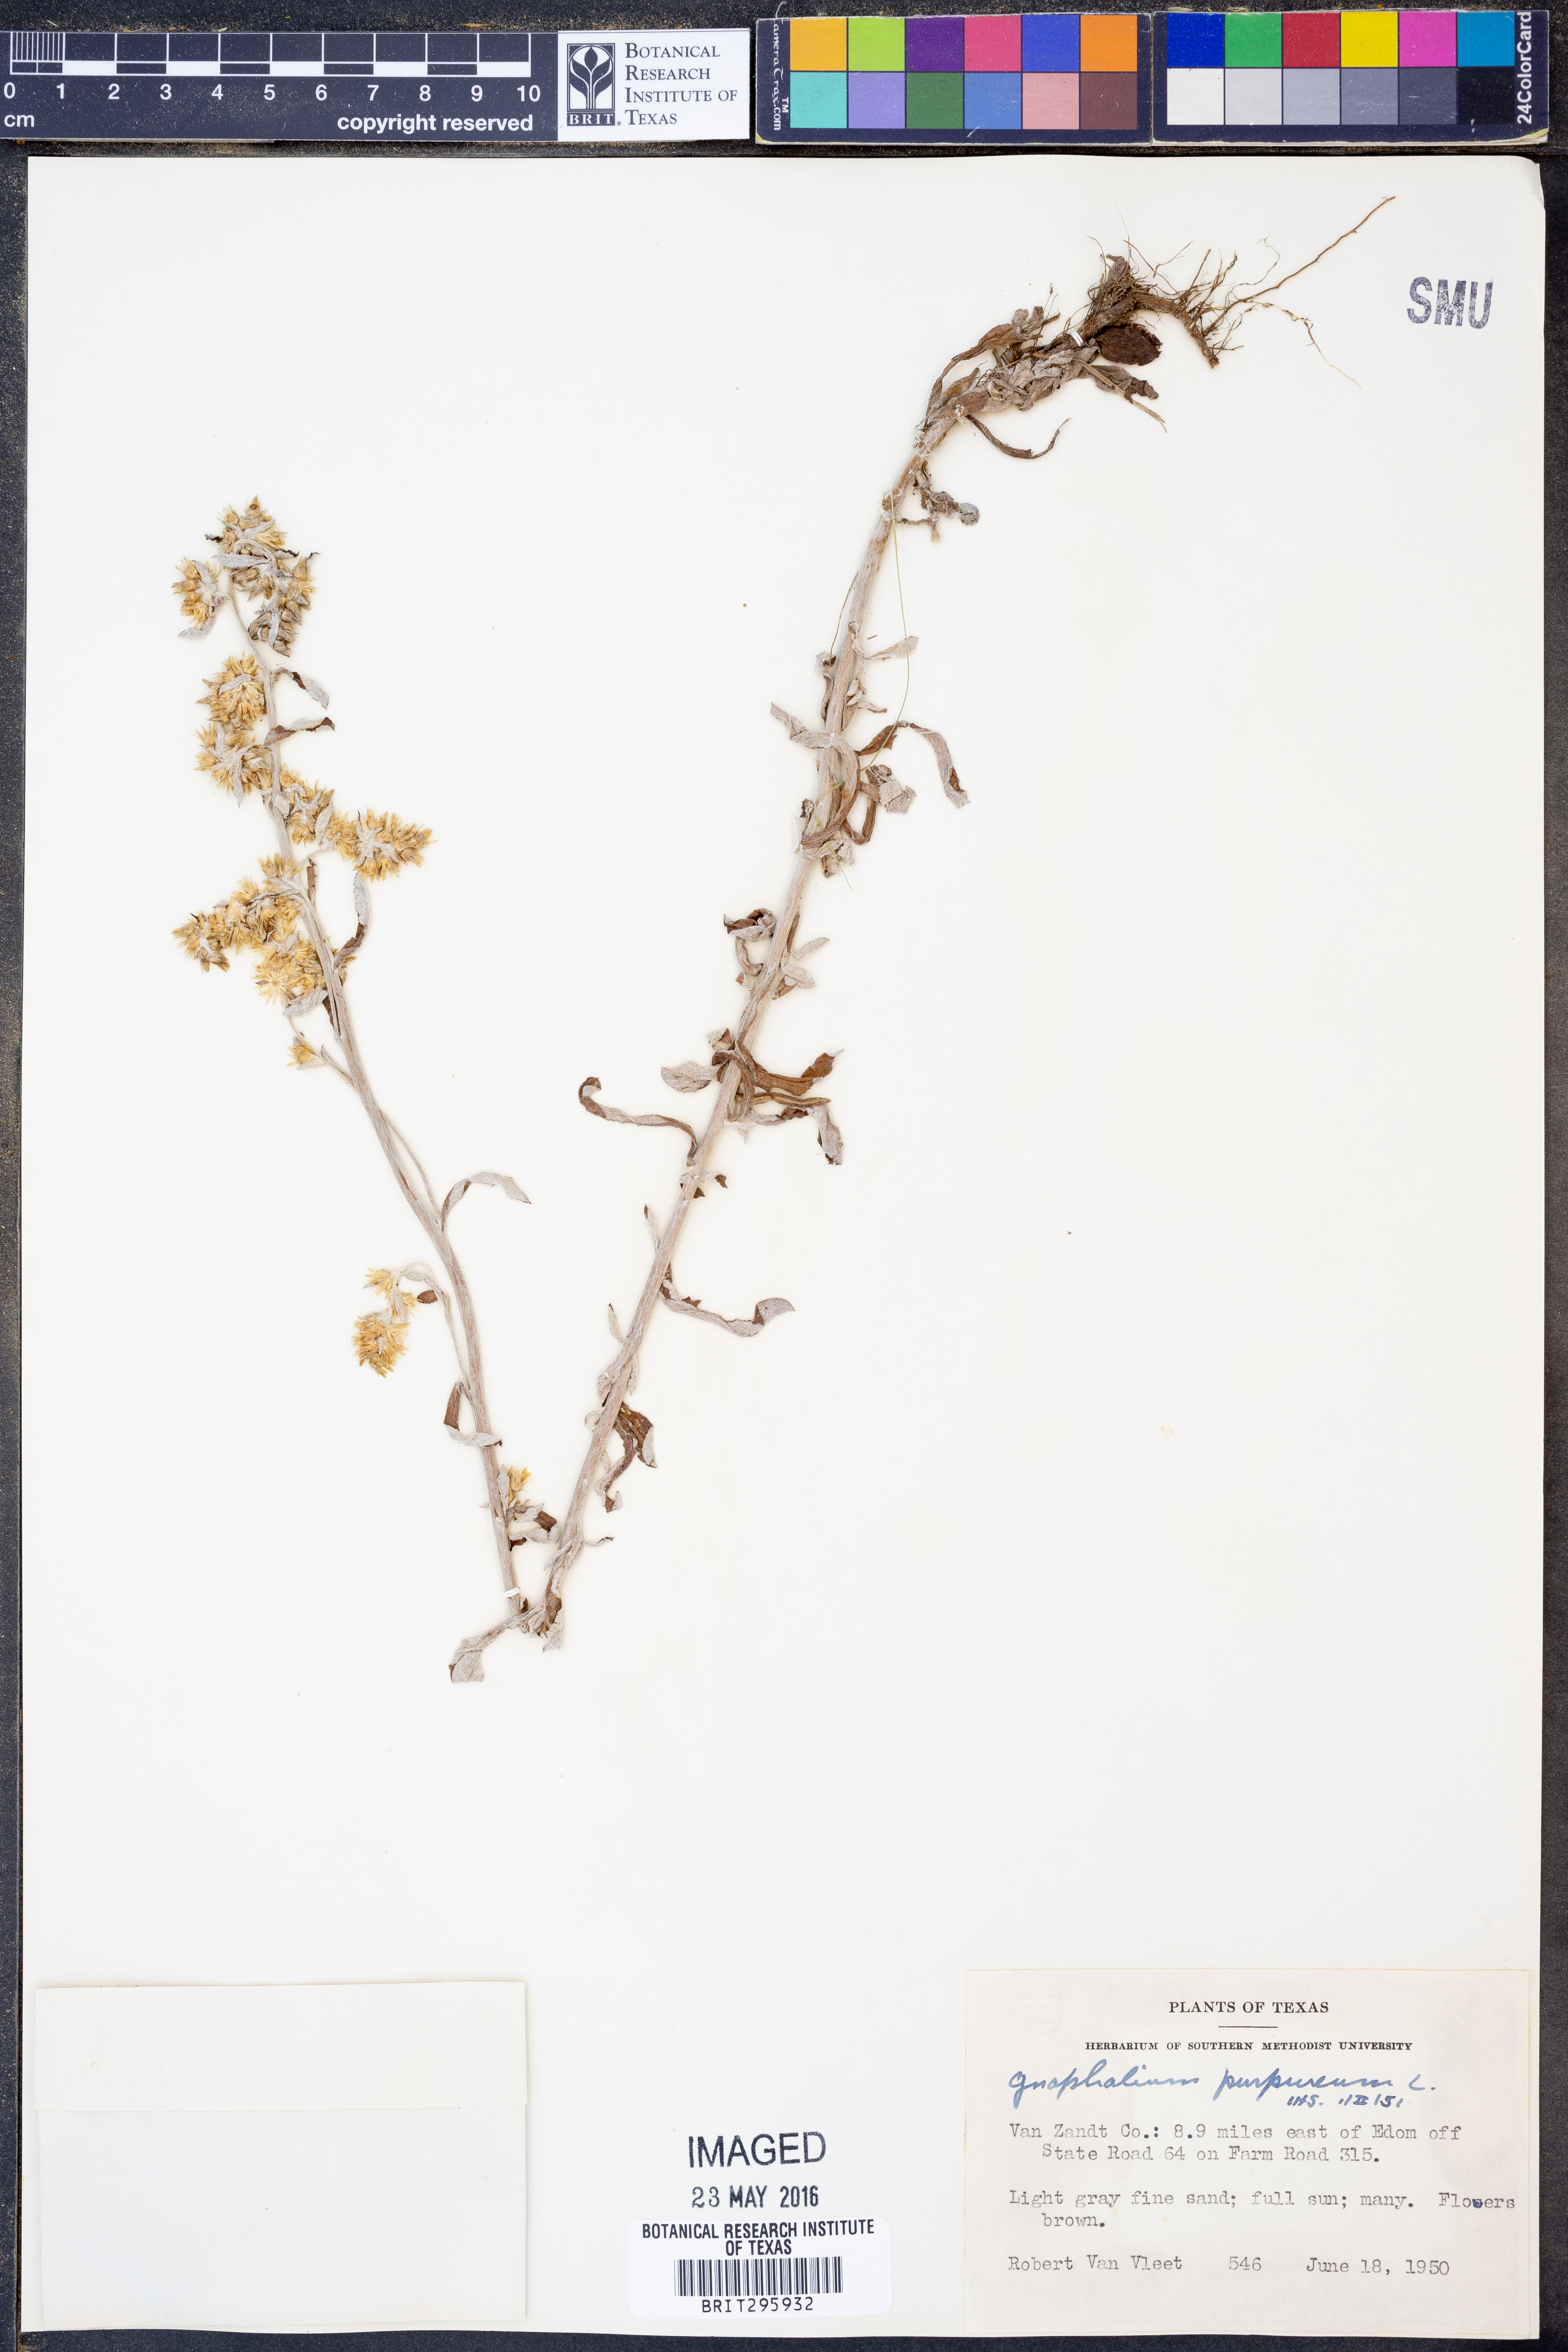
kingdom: Plantae
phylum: Tracheophyta
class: Magnoliopsida
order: Asterales
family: Asteraceae
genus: Gamochaeta
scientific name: Gamochaeta purpurea
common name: Purple cudweed
